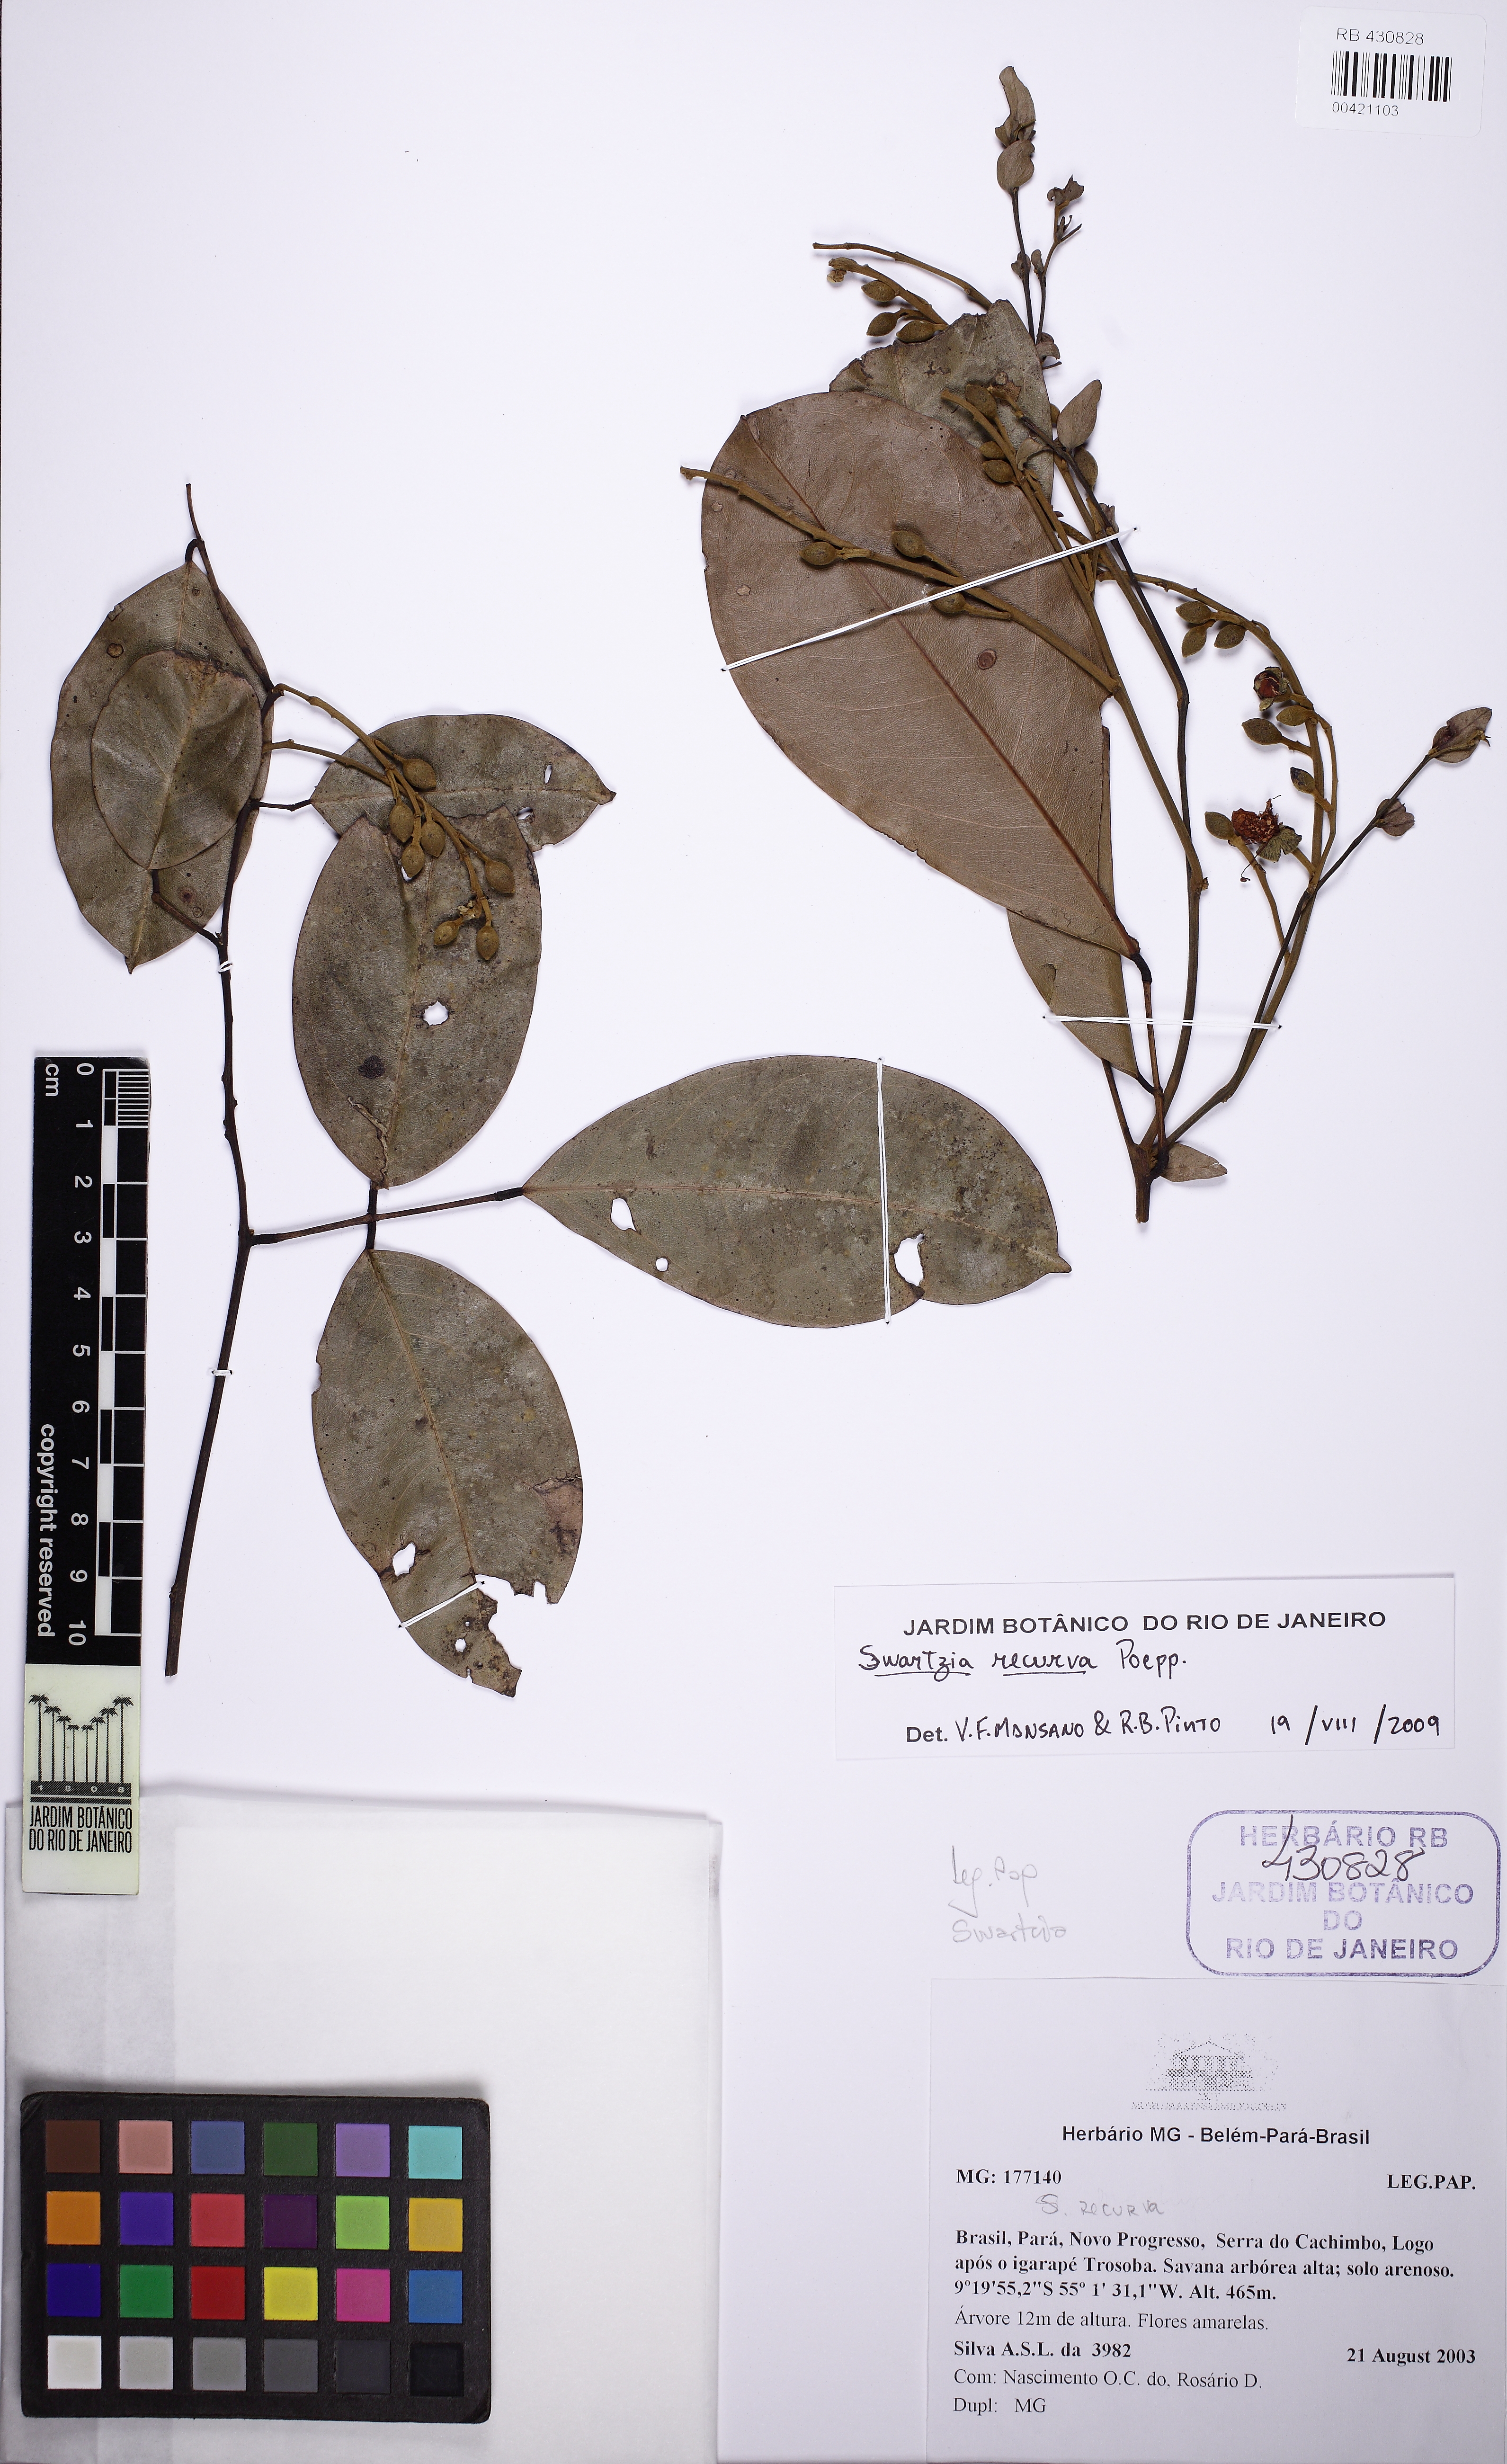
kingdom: Plantae
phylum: Tracheophyta
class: Magnoliopsida
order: Fabales
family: Fabaceae
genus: Swartzia
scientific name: Swartzia recurva
